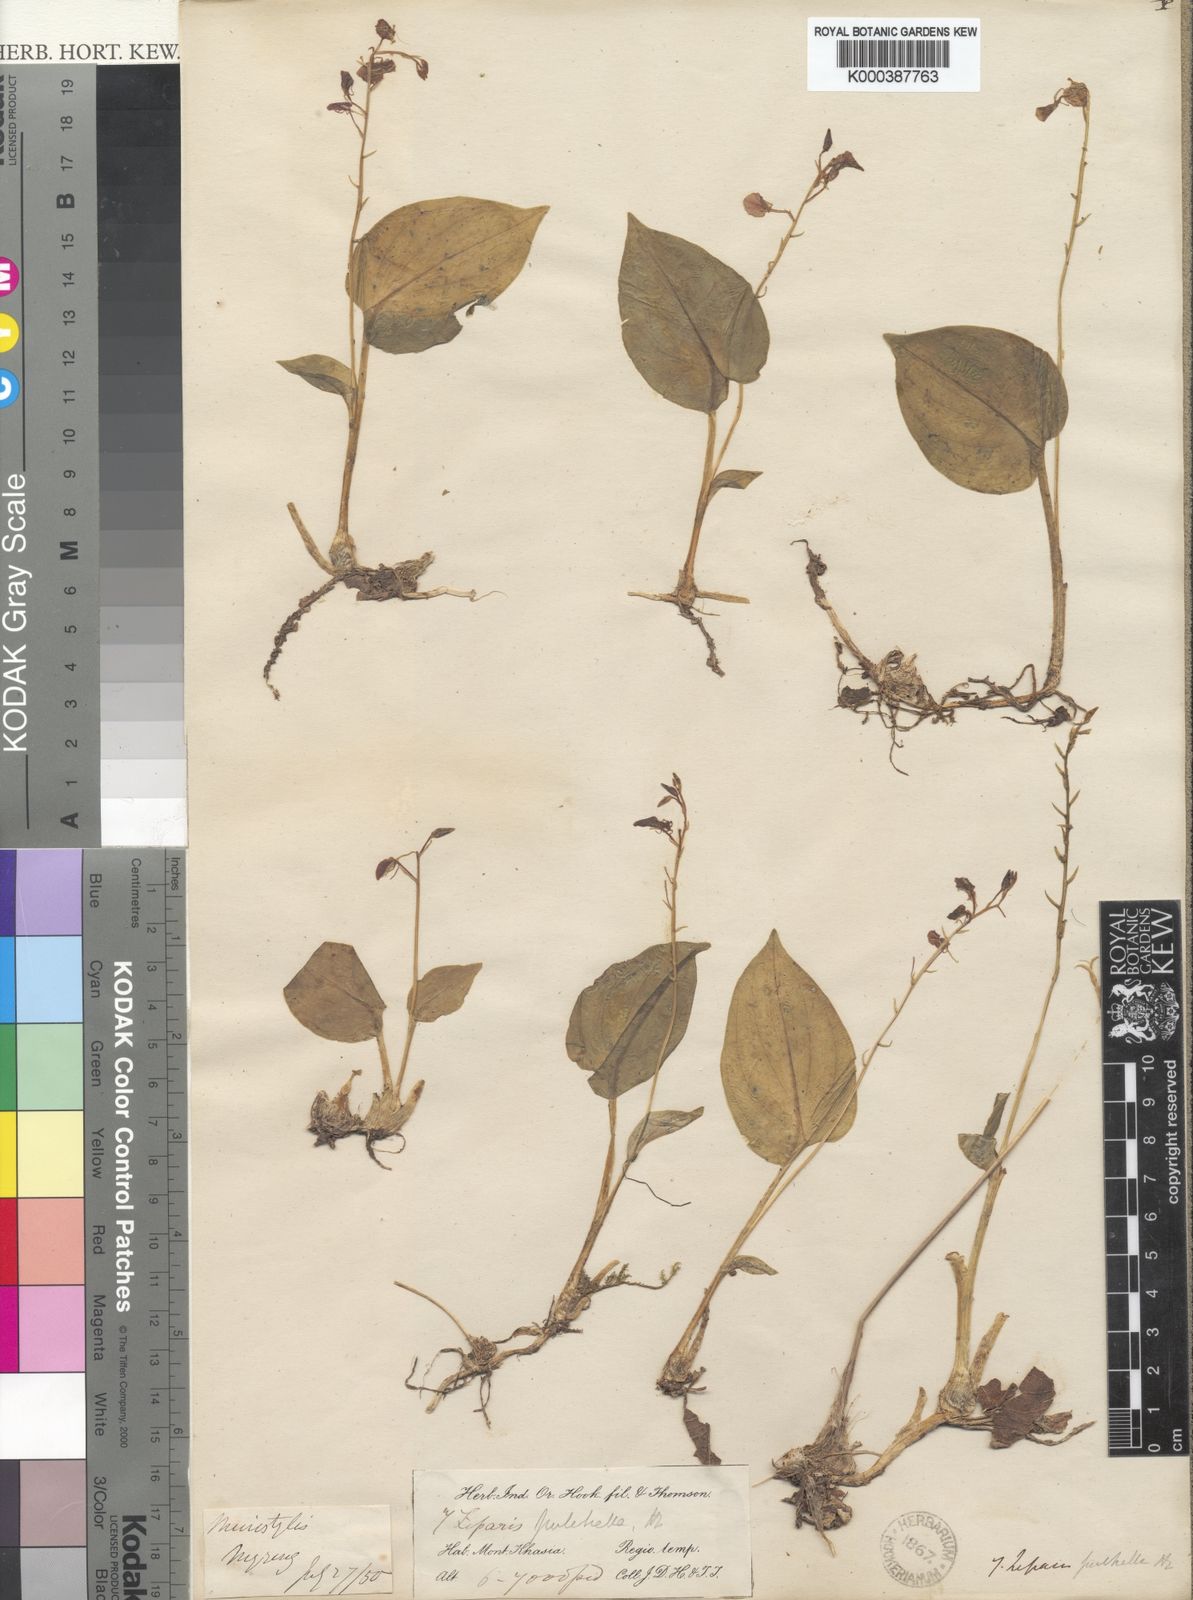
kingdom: Plantae
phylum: Tracheophyta
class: Liliopsida
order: Asparagales
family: Orchidaceae
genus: Liparis
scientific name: Liparis petiolata
